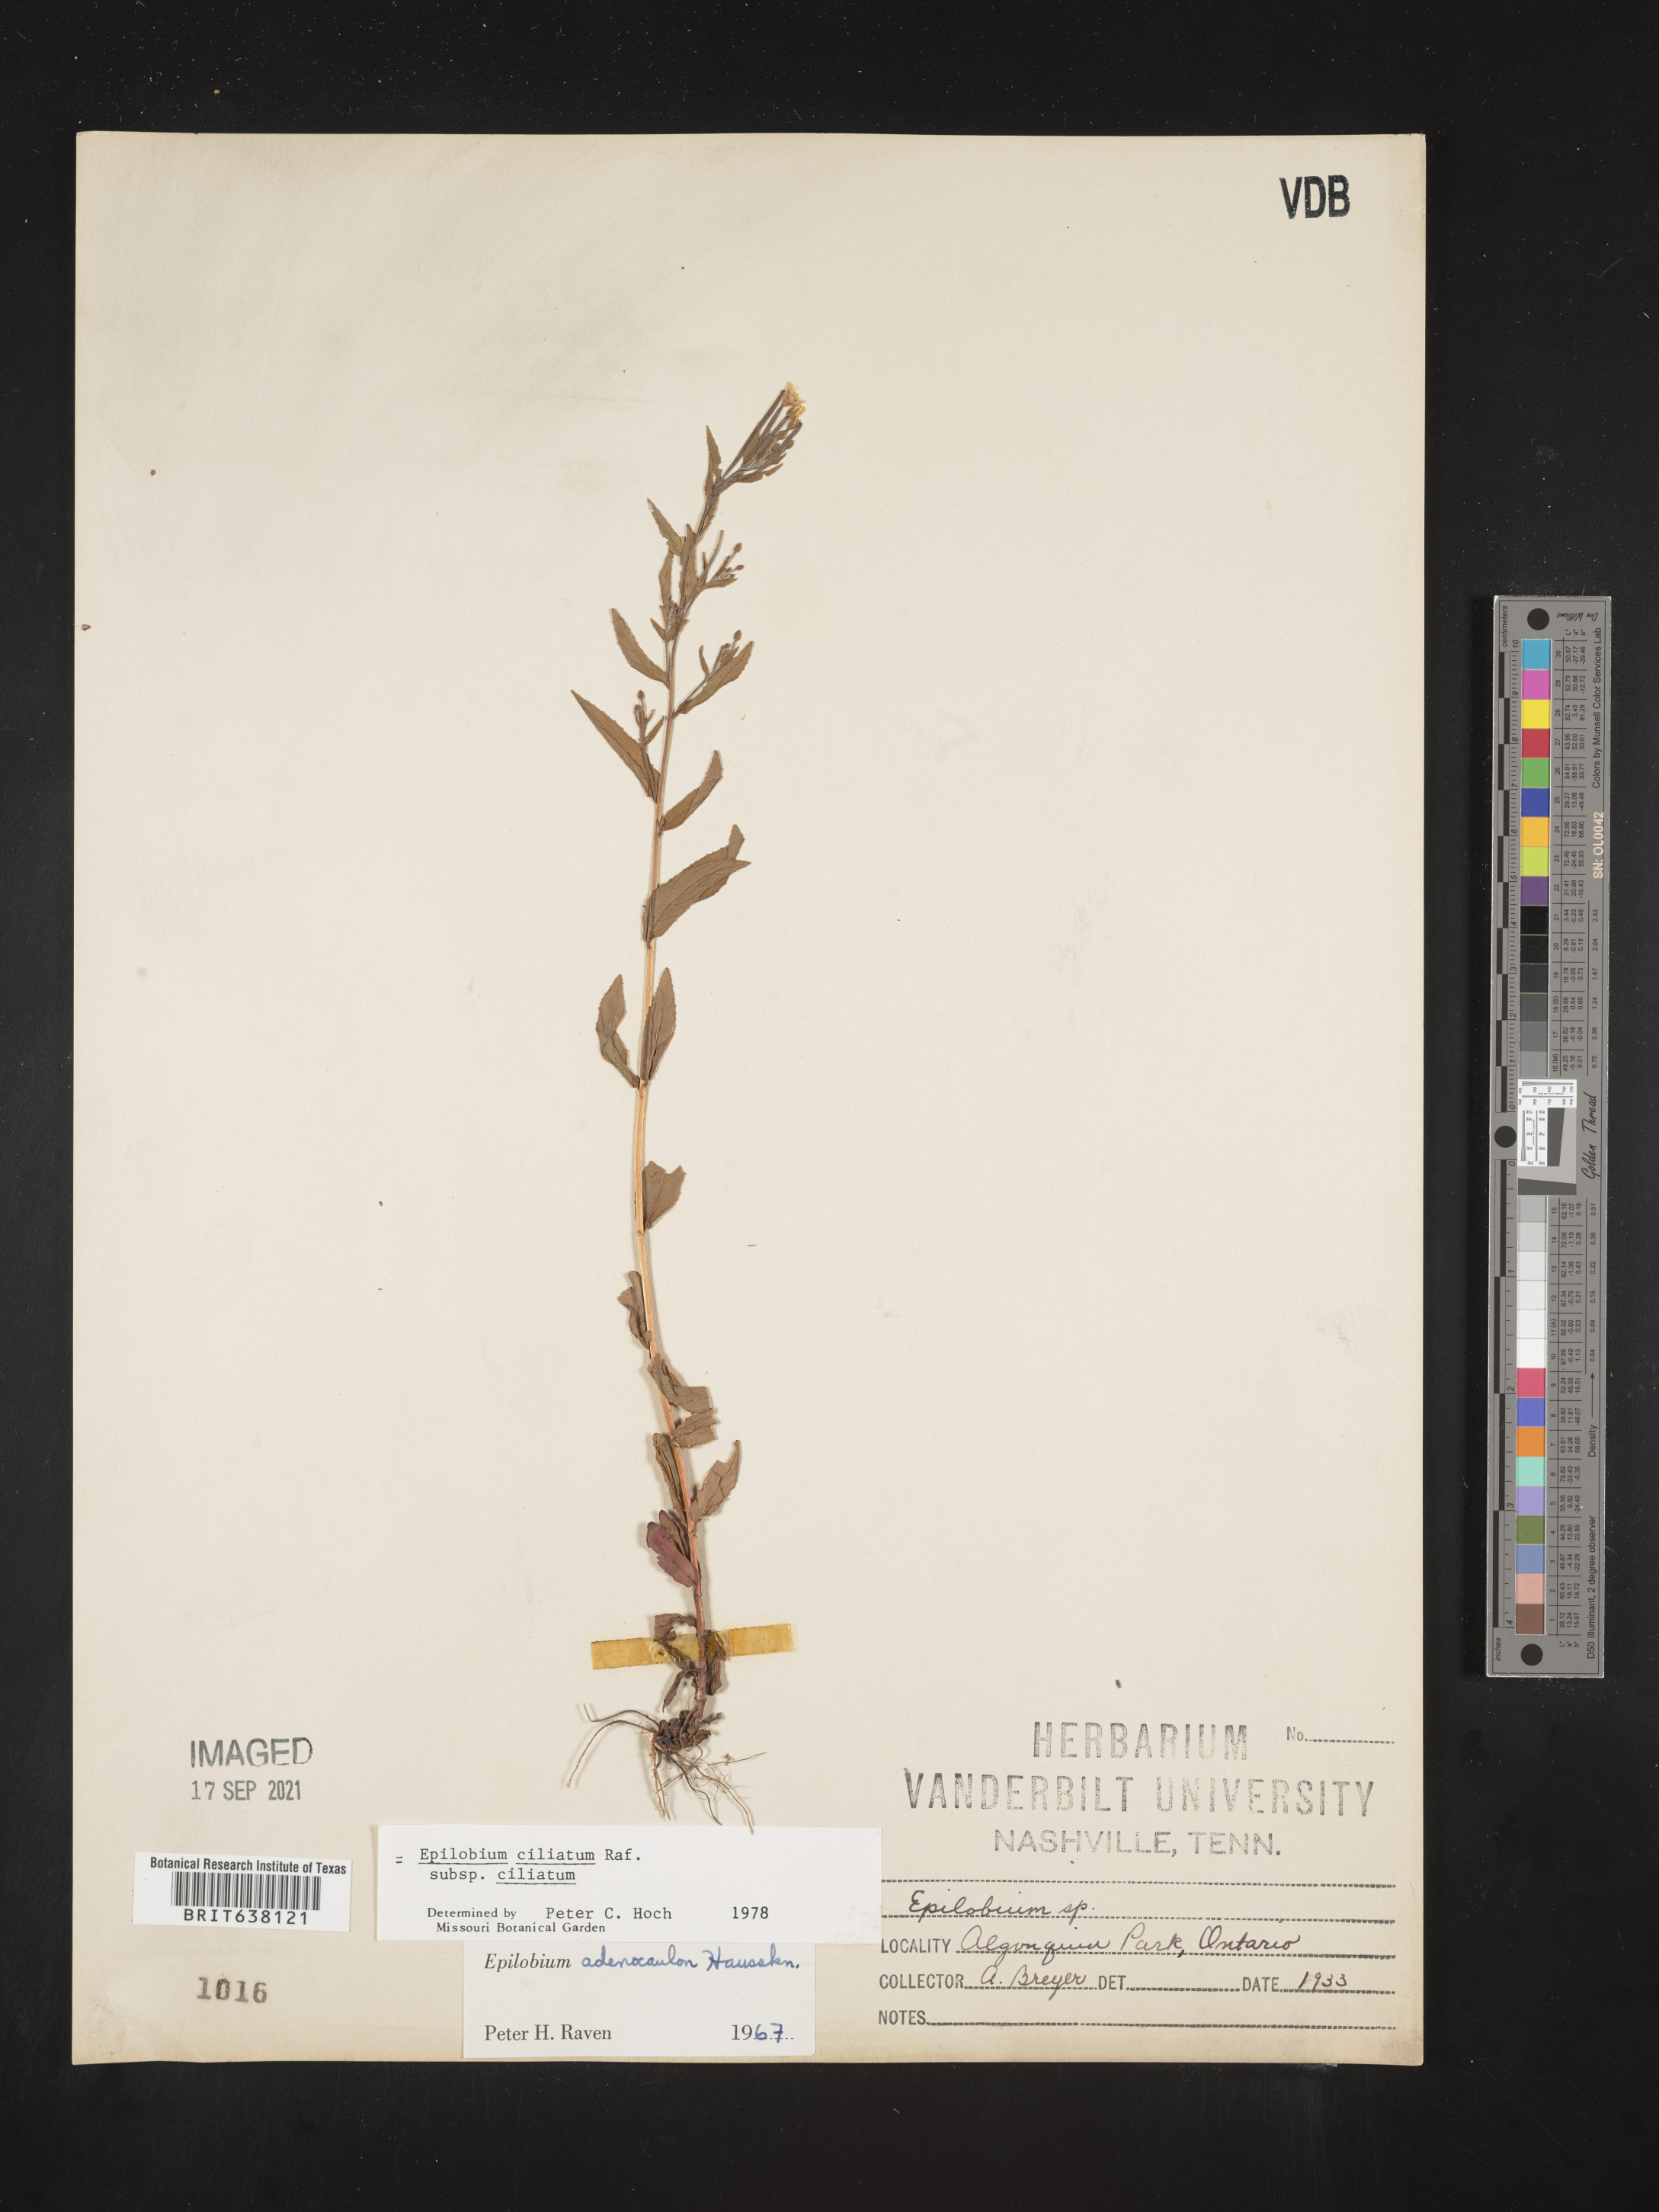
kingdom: Plantae
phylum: Tracheophyta
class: Magnoliopsida
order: Myrtales
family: Onagraceae
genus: Epilobium
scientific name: Epilobium
